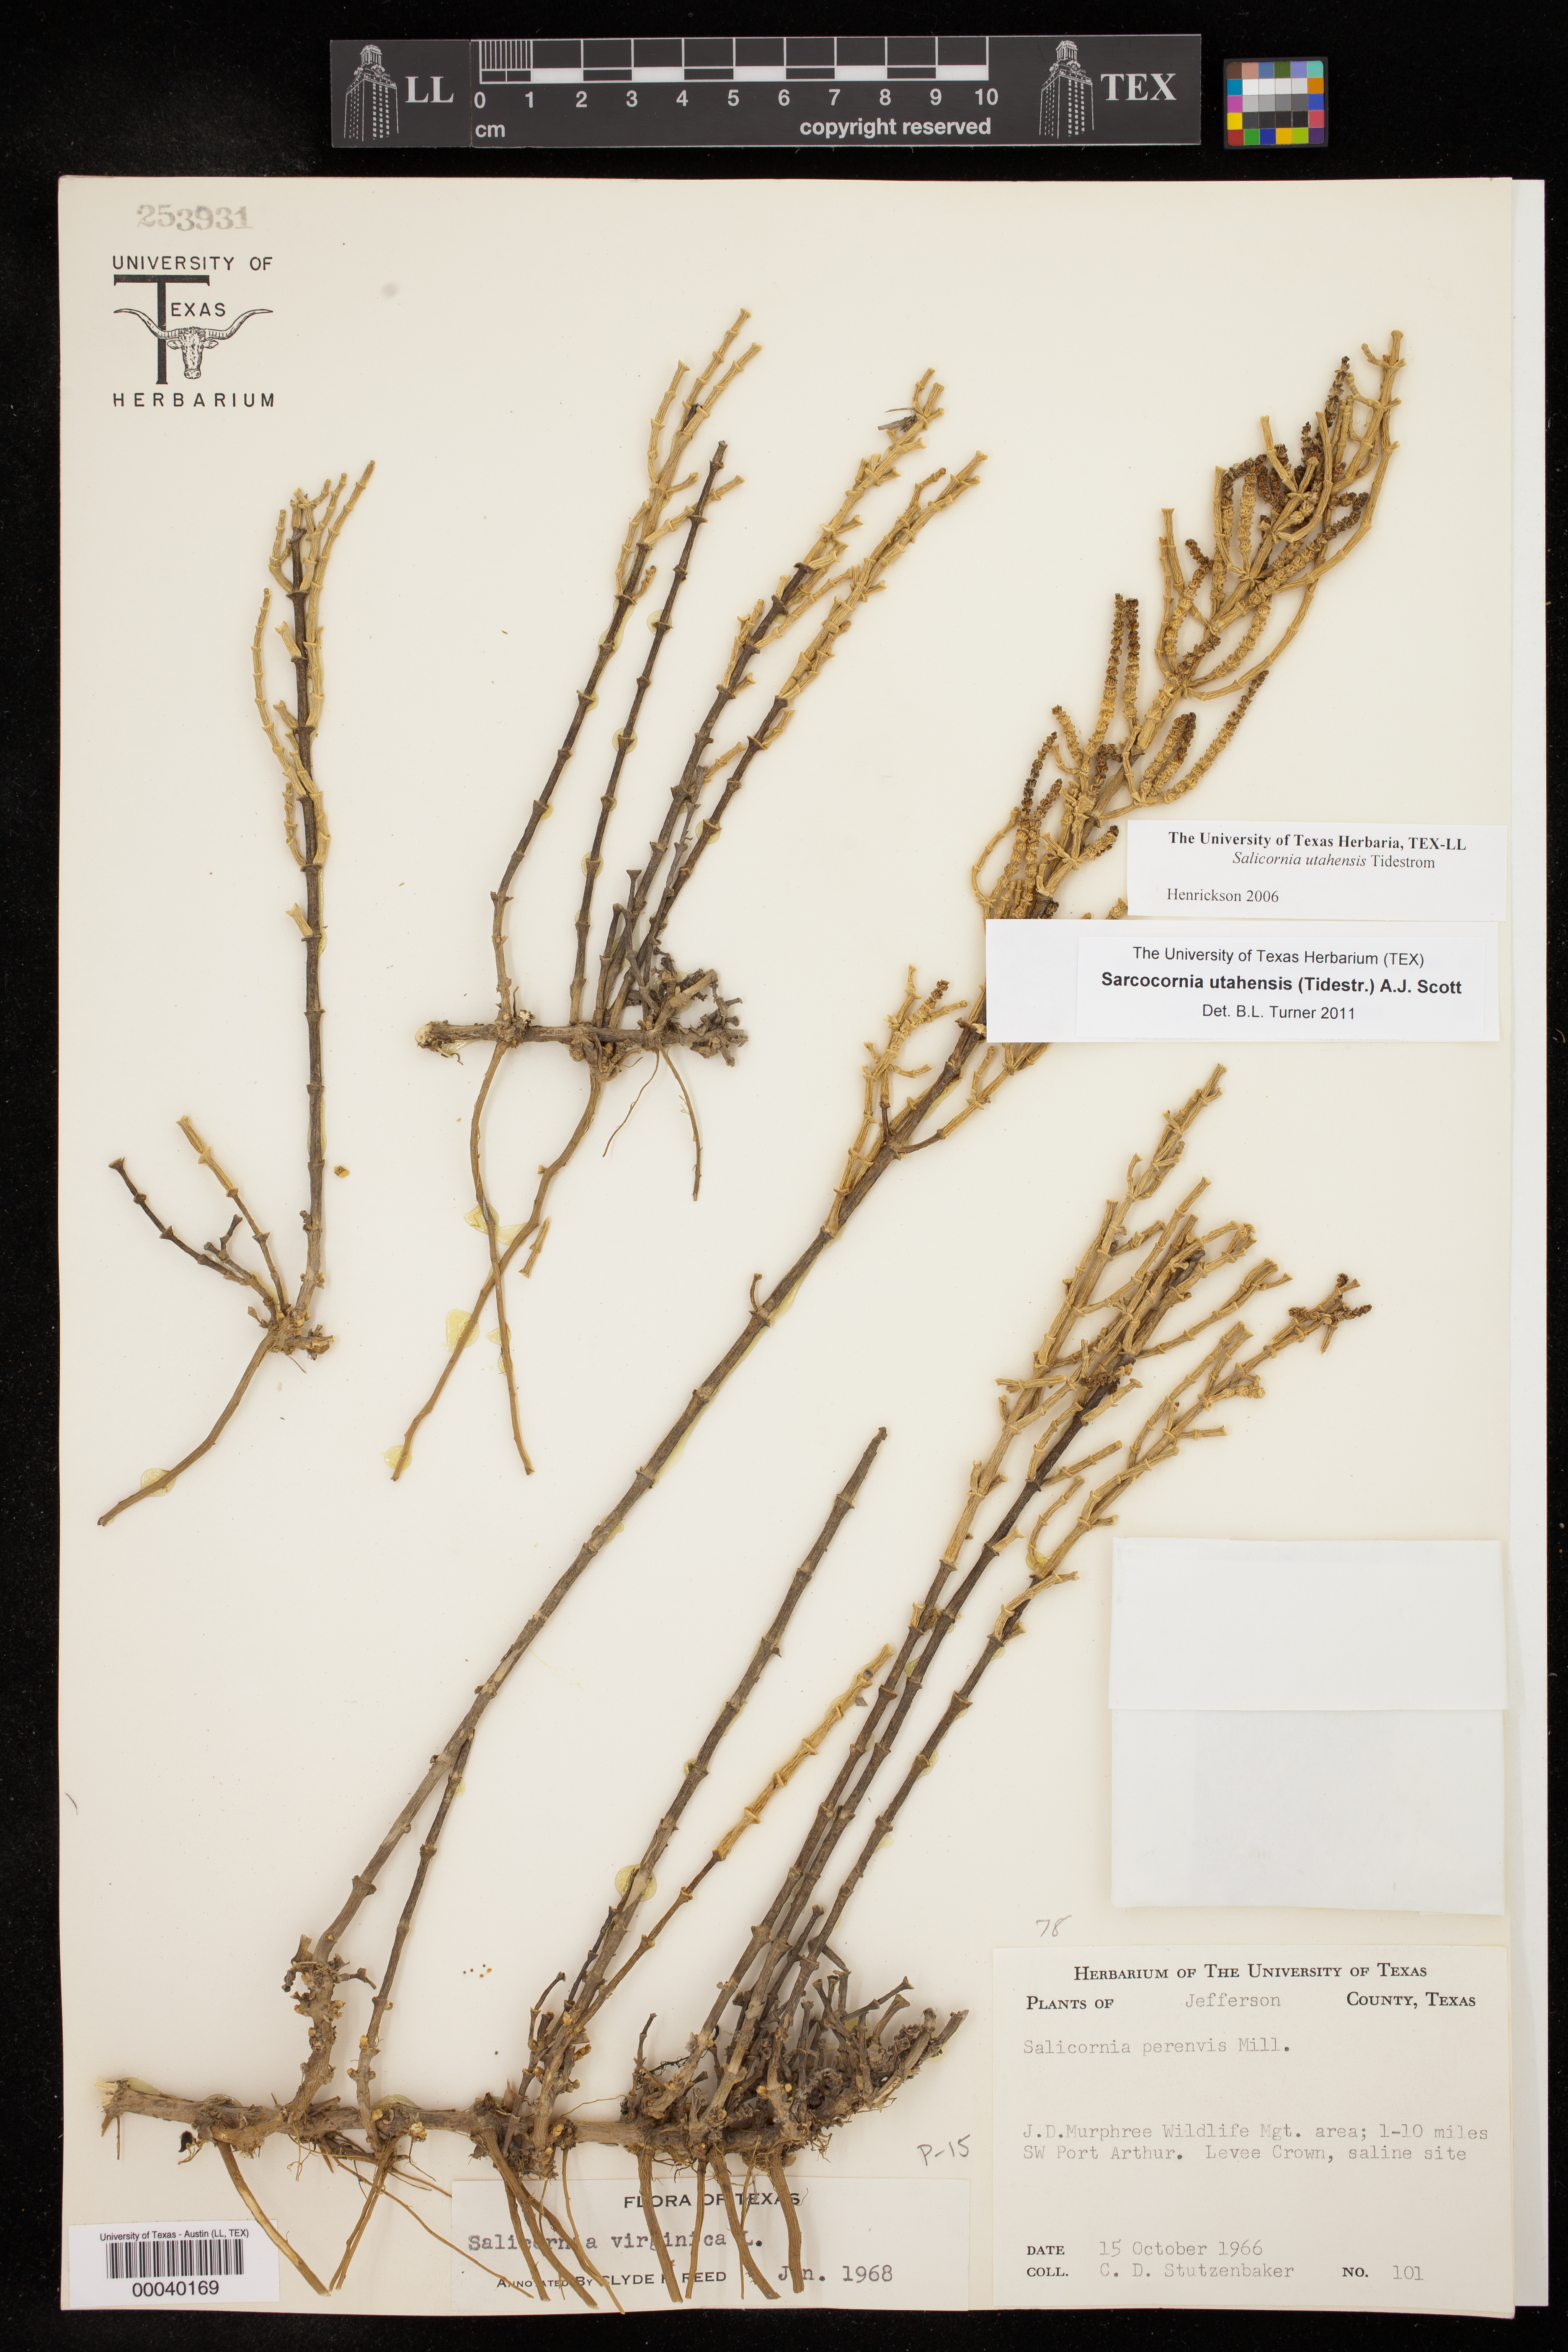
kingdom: Plantae
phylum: Tracheophyta
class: Magnoliopsida
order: Caryophyllales
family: Amaranthaceae
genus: Salicornia
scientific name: Salicornia utahensis
